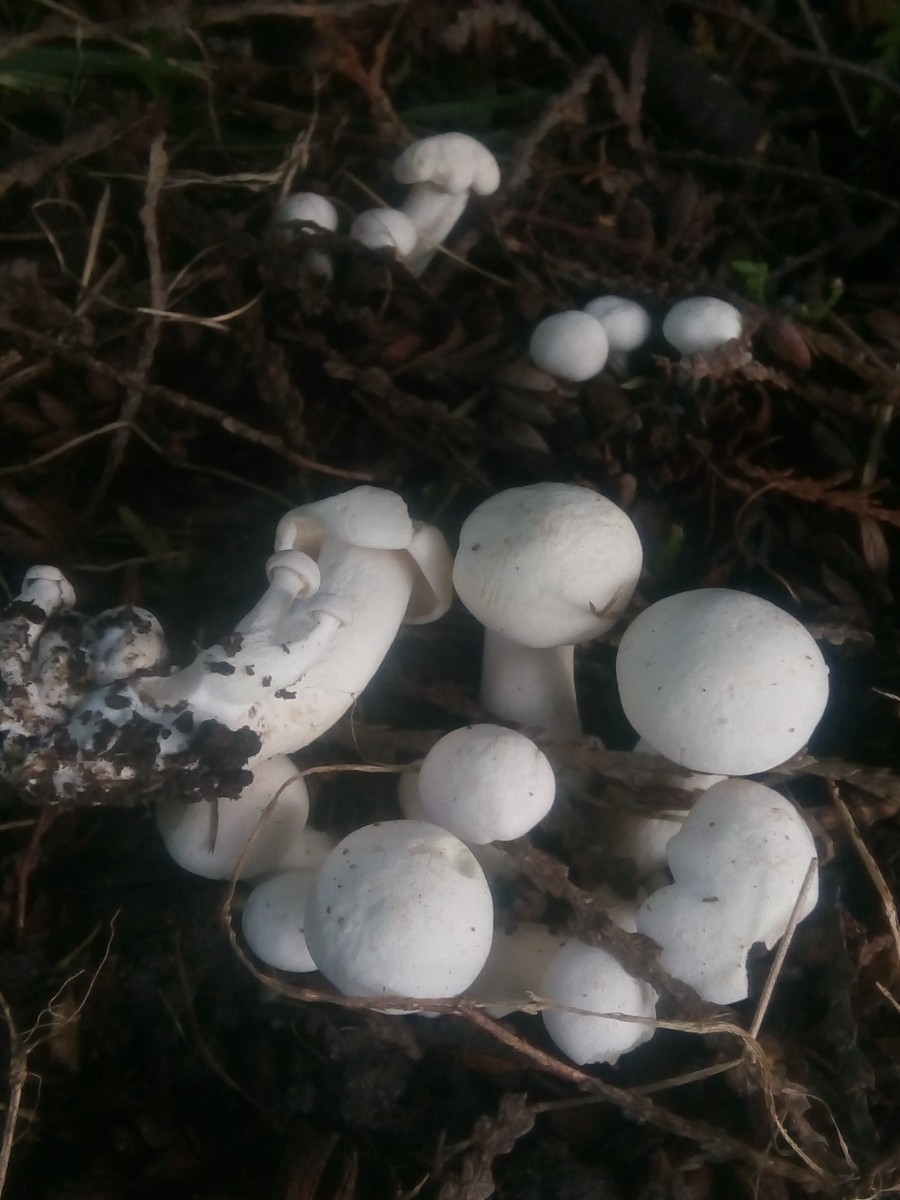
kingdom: Fungi
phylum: Basidiomycota
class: Agaricomycetes
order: Agaricales
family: Tricholomataceae
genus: Leucocybe
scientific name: Leucocybe connata
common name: knippe-tragthat
